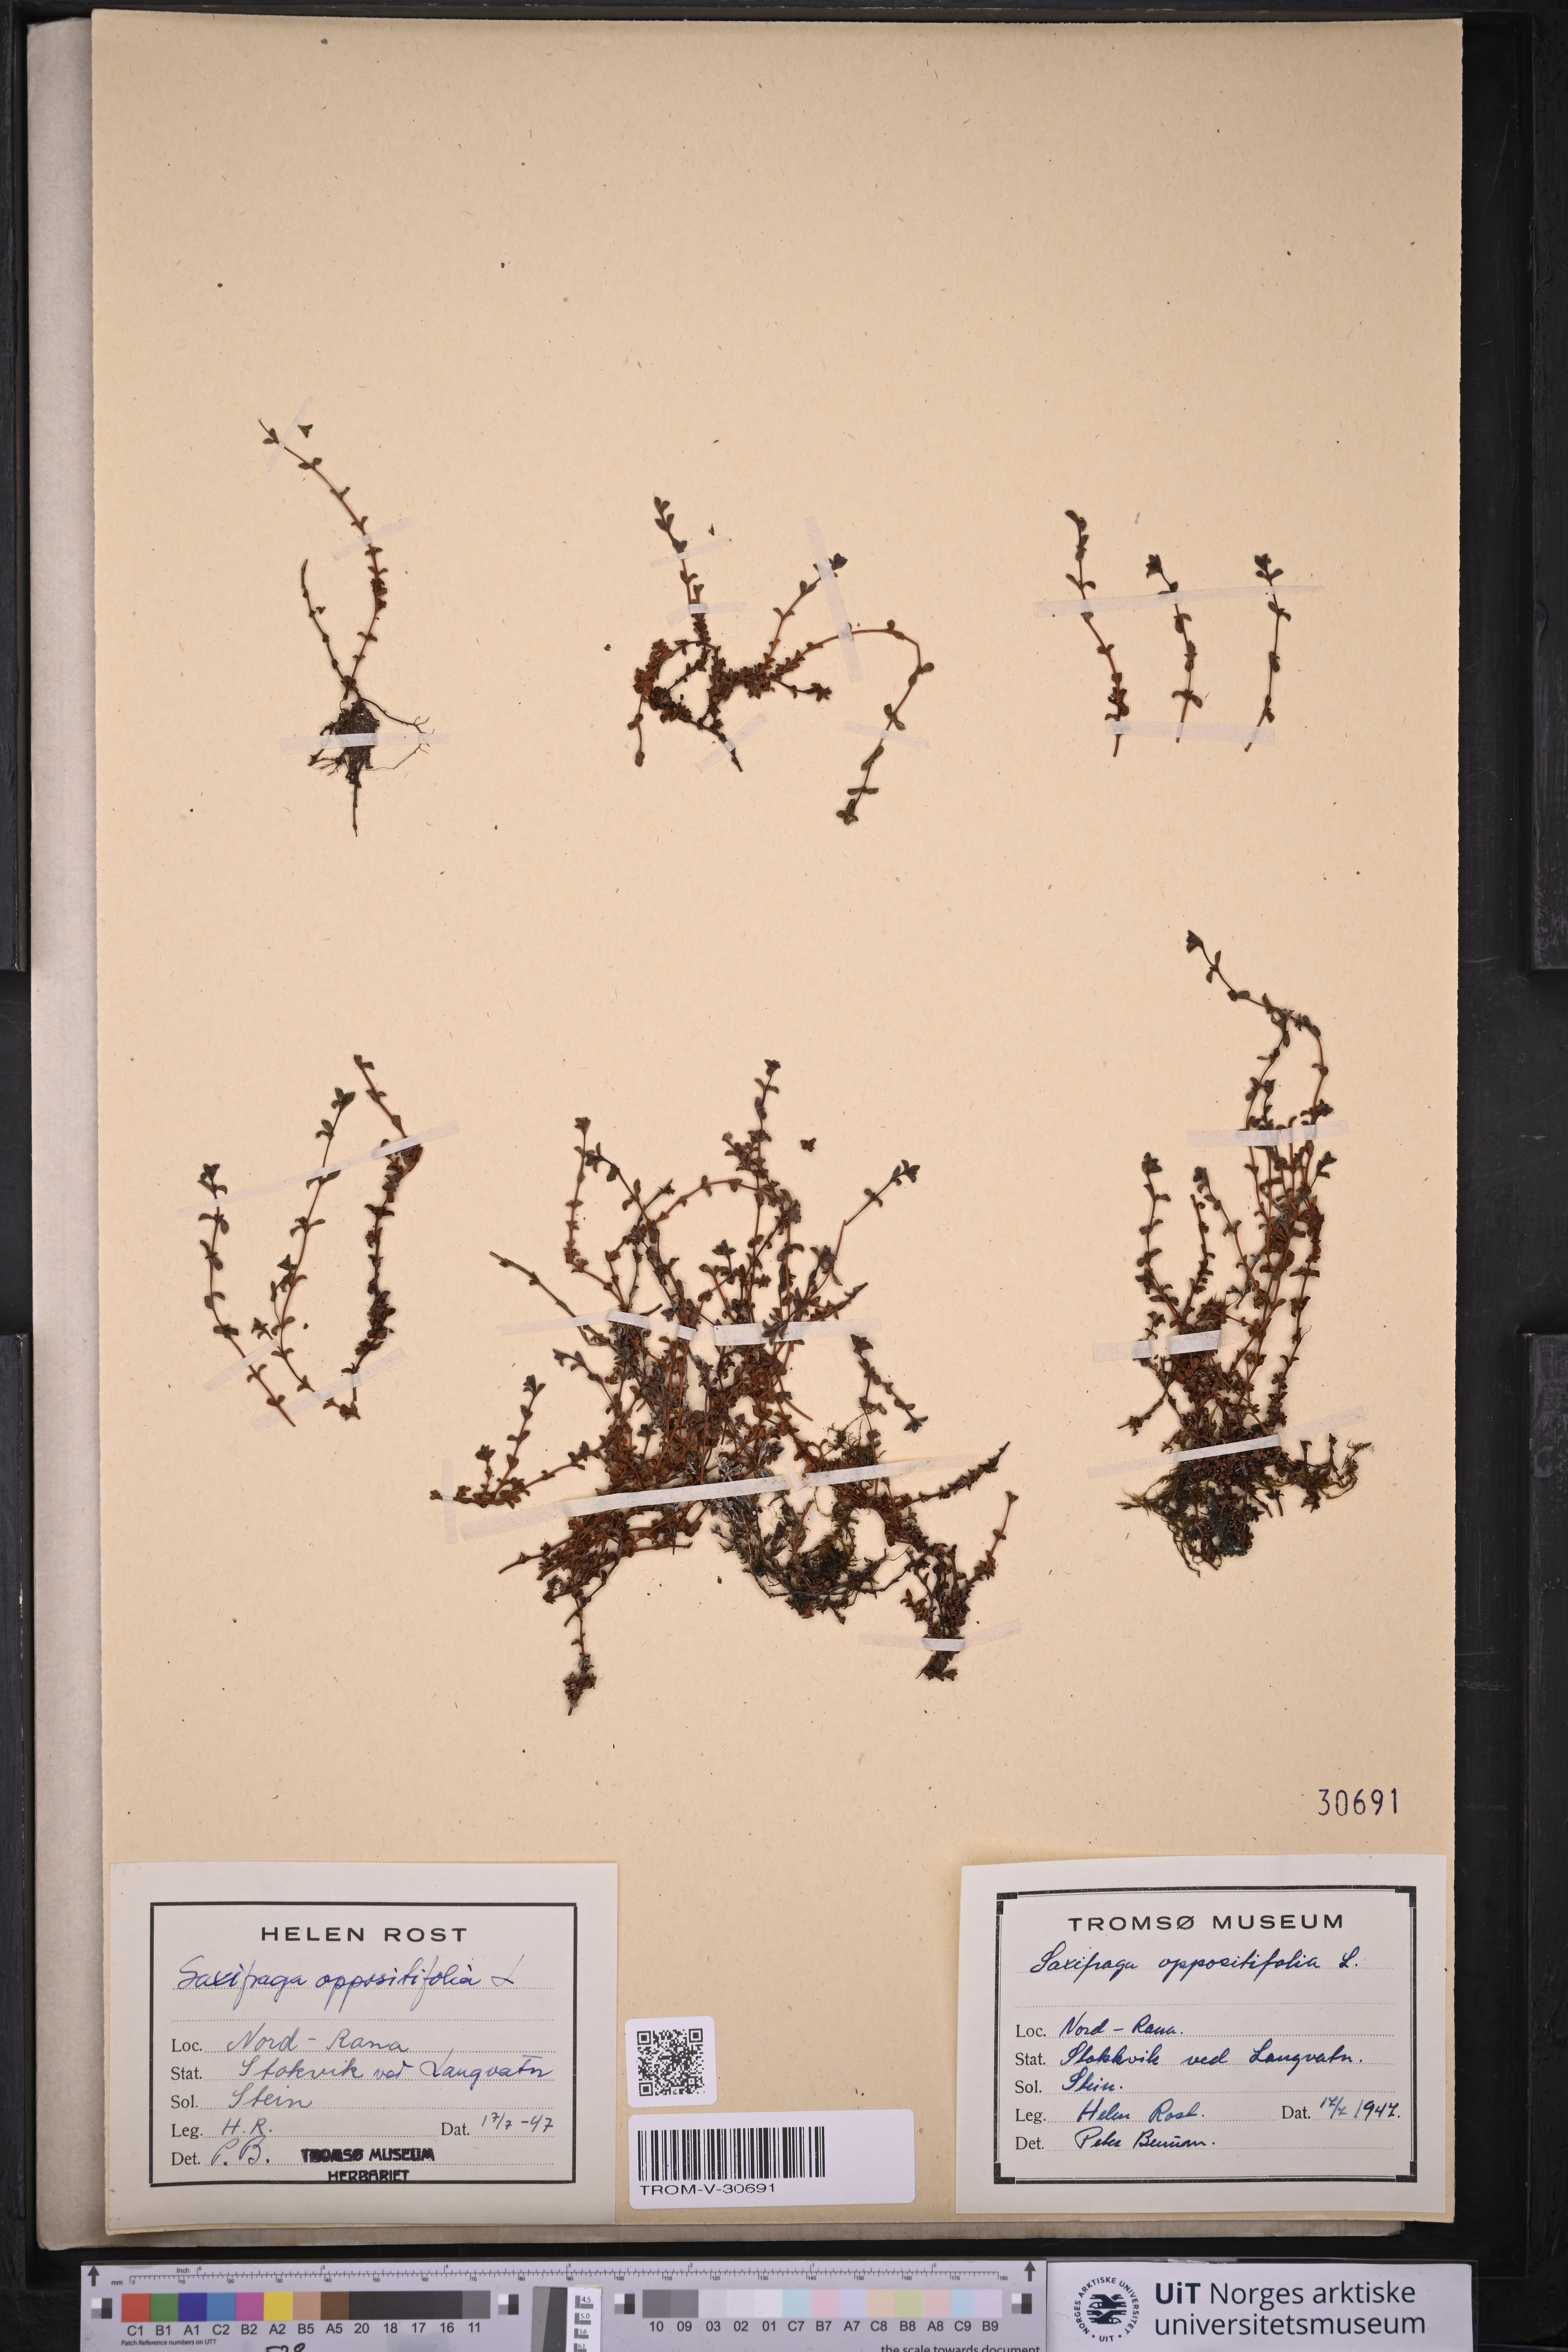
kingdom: Plantae
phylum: Tracheophyta
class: Magnoliopsida
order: Saxifragales
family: Saxifragaceae
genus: Saxifraga
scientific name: Saxifraga oppositifolia
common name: Purple saxifrage
